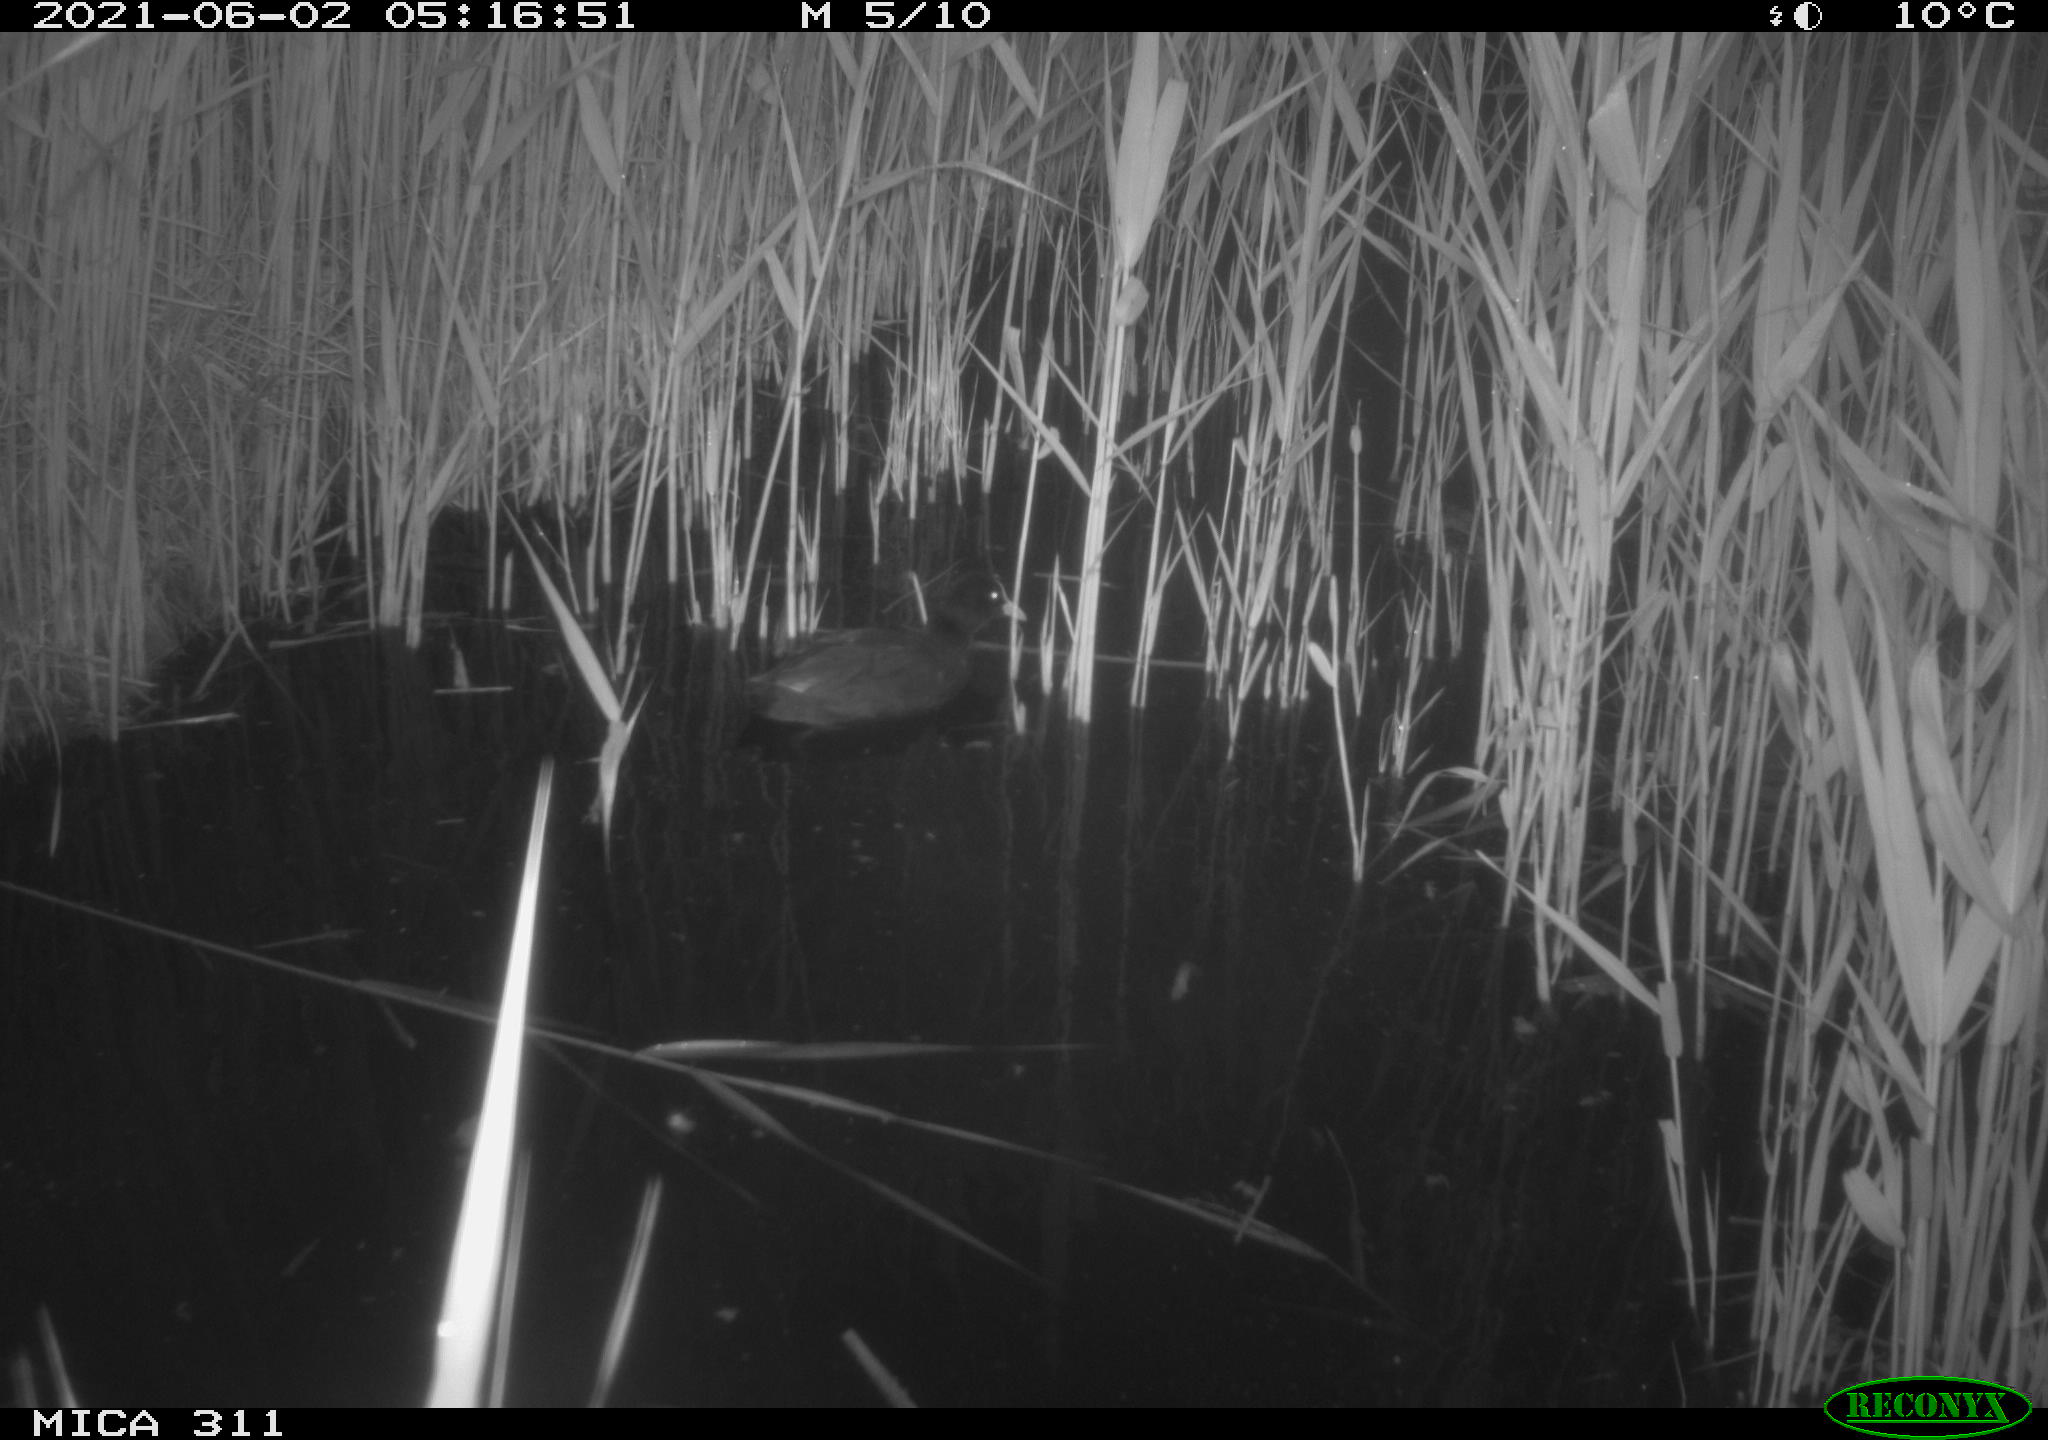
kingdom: Animalia
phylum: Chordata
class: Aves
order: Gruiformes
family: Rallidae
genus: Fulica
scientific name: Fulica atra
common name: Eurasian coot
